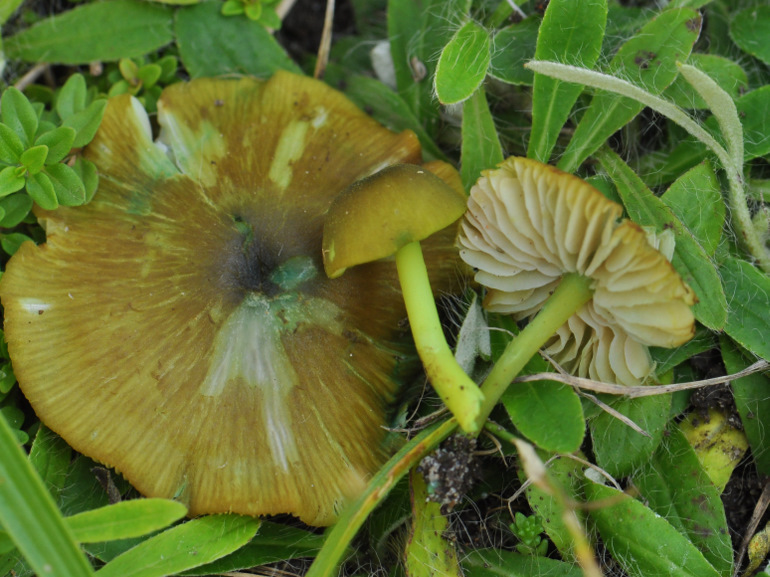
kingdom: Fungi
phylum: Basidiomycota
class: Agaricomycetes
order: Agaricales
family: Entolomataceae
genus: Entoloma
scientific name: Entoloma incanum
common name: grøngul rødblad
